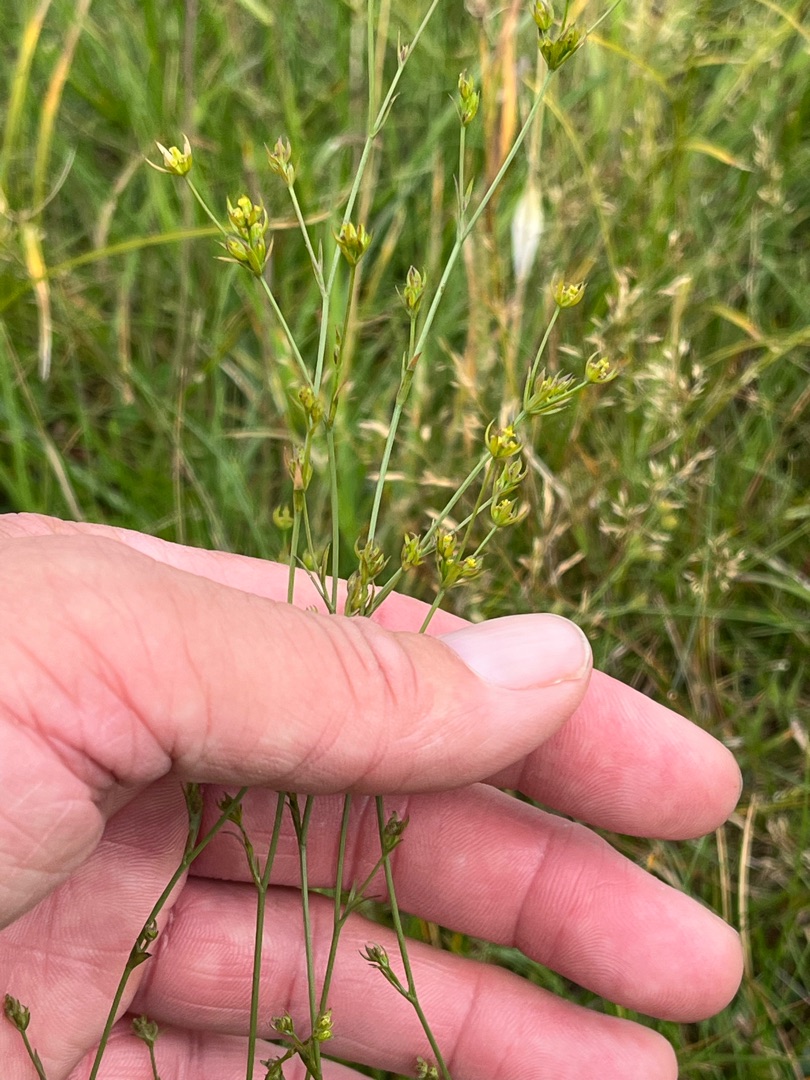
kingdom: Plantae
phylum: Tracheophyta
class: Magnoliopsida
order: Apiales
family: Apiaceae
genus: Bupleurum
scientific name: Bupleurum tenuissimum
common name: Smalbladet hareøre
